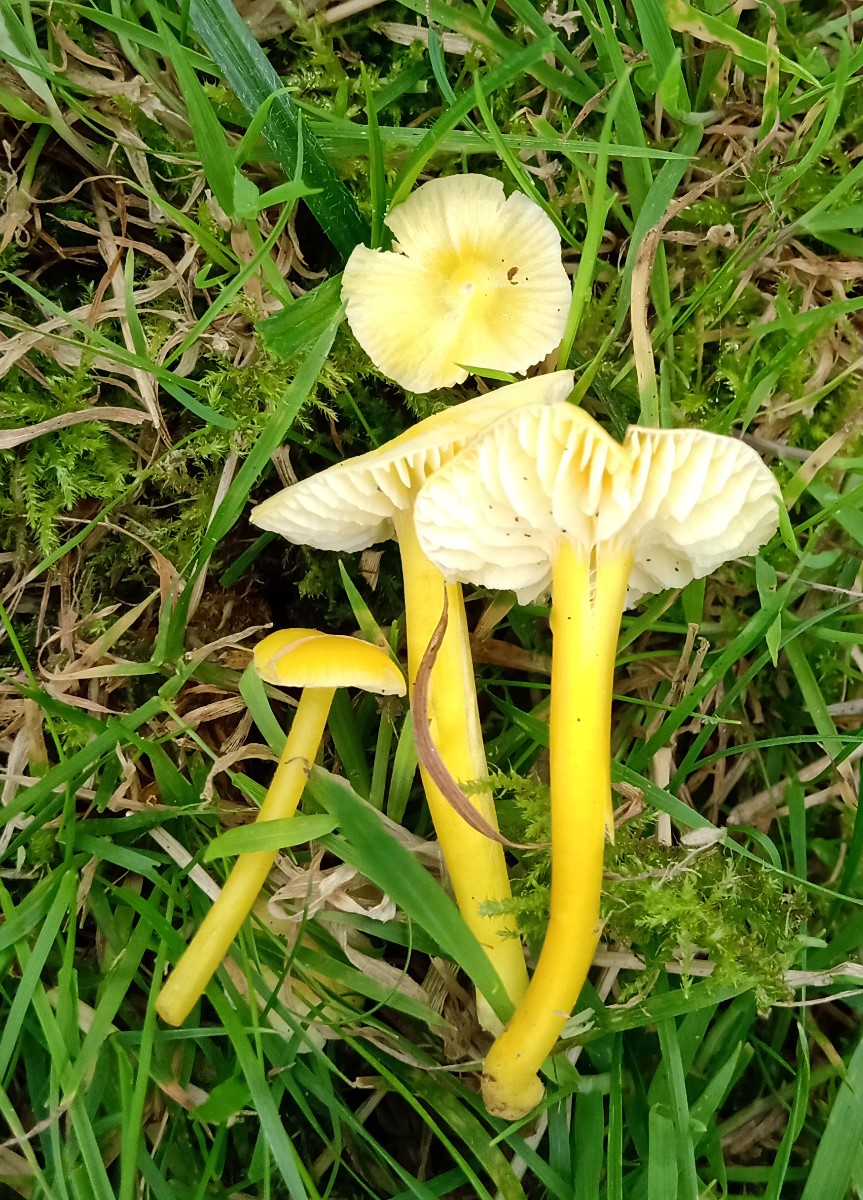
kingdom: Fungi
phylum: Basidiomycota
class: Agaricomycetes
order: Agaricales
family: Hygrophoraceae
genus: Hygrocybe
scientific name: Hygrocybe ceracea
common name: voksgul vokshat
